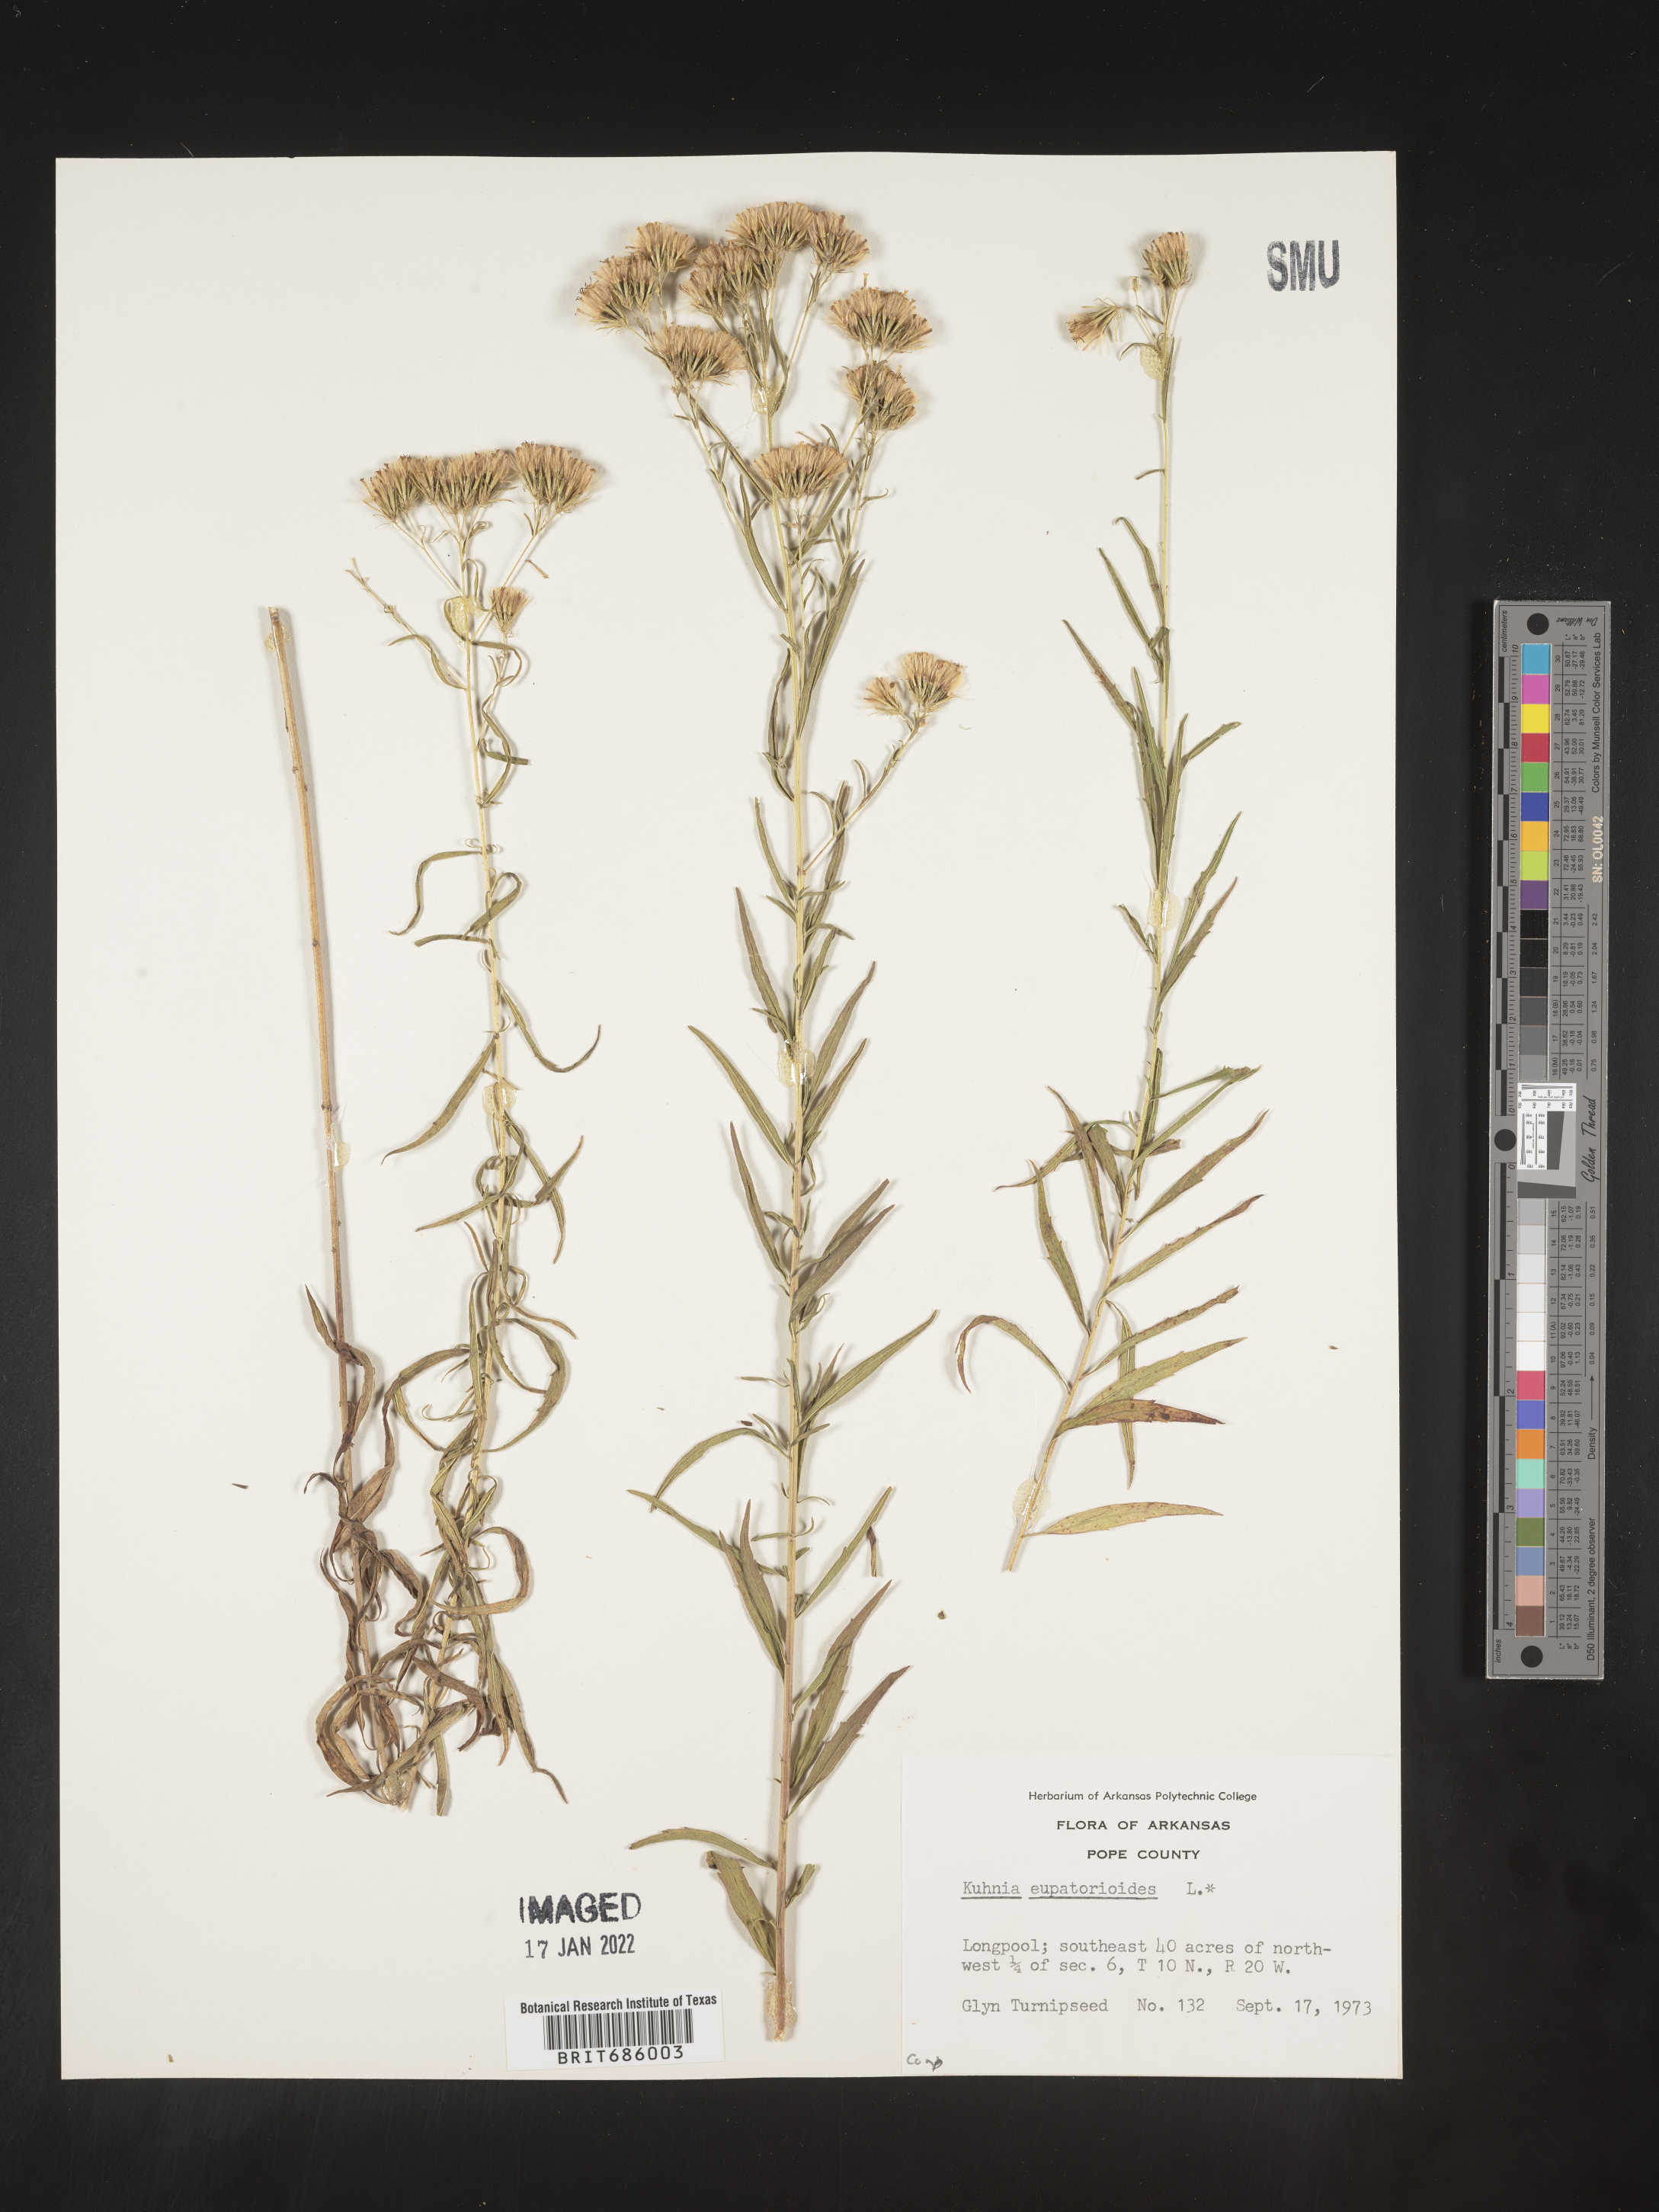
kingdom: Plantae
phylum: Tracheophyta
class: Magnoliopsida
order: Asterales
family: Asteraceae
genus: Brickellia
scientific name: Brickellia eupatorioides
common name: False boneset
